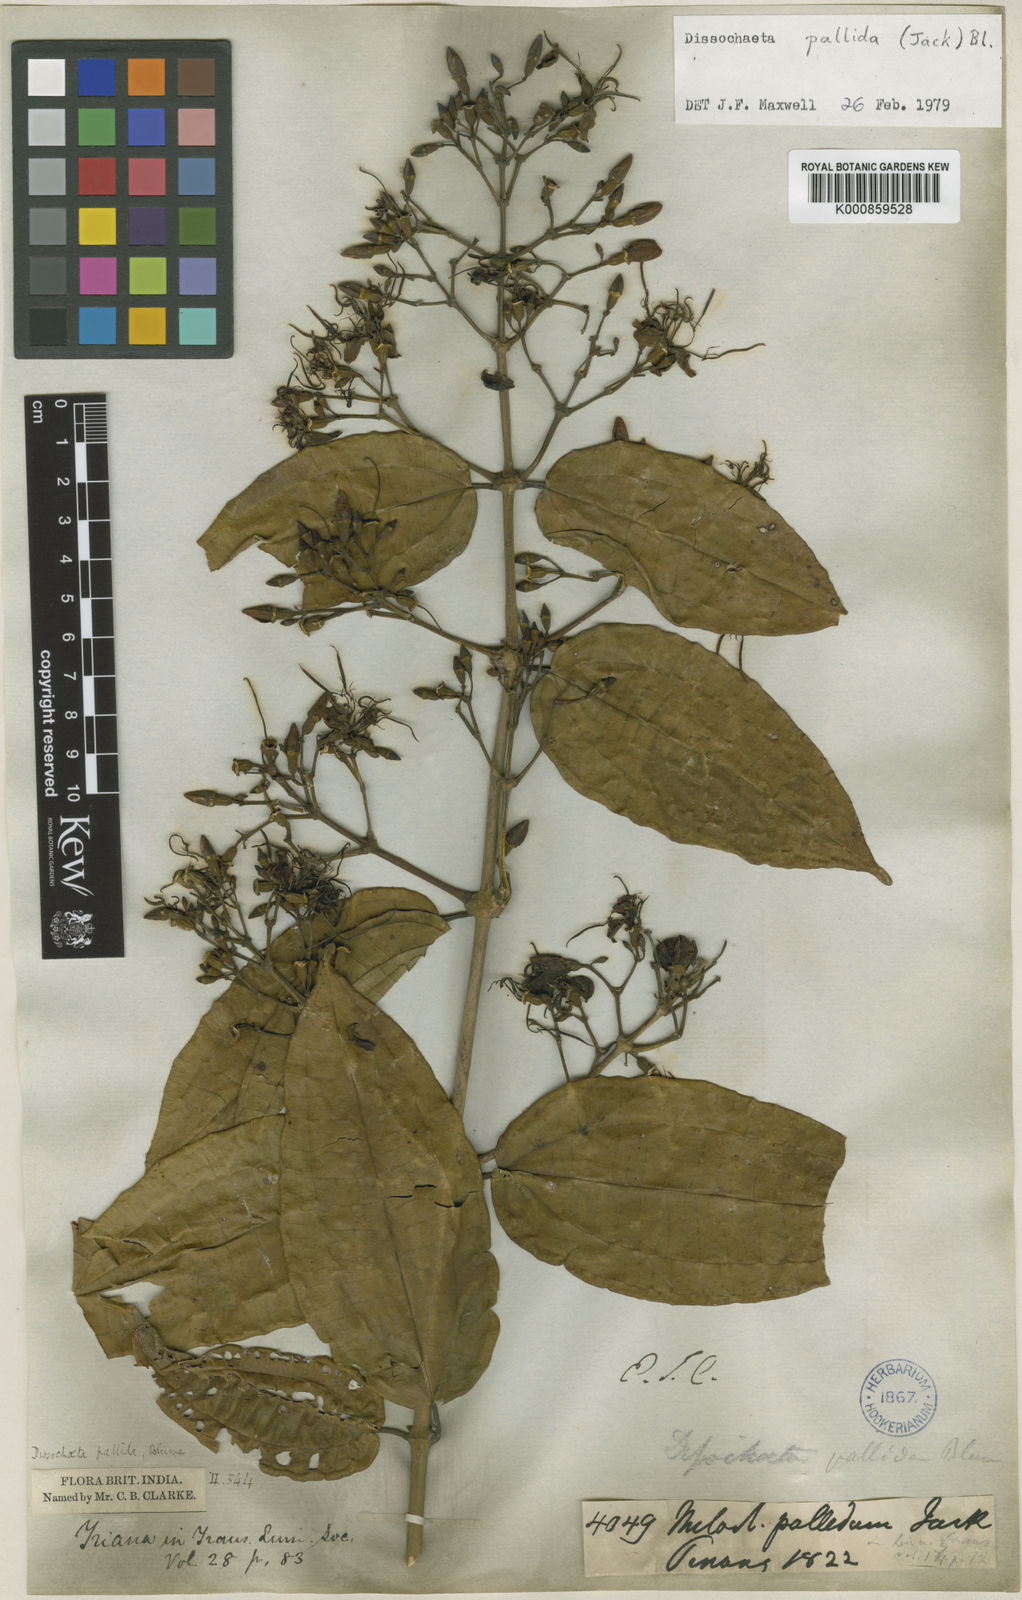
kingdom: Plantae
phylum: Tracheophyta
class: Magnoliopsida
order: Myrtales
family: Melastomataceae
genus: Dissochaeta
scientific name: Dissochaeta pallida
